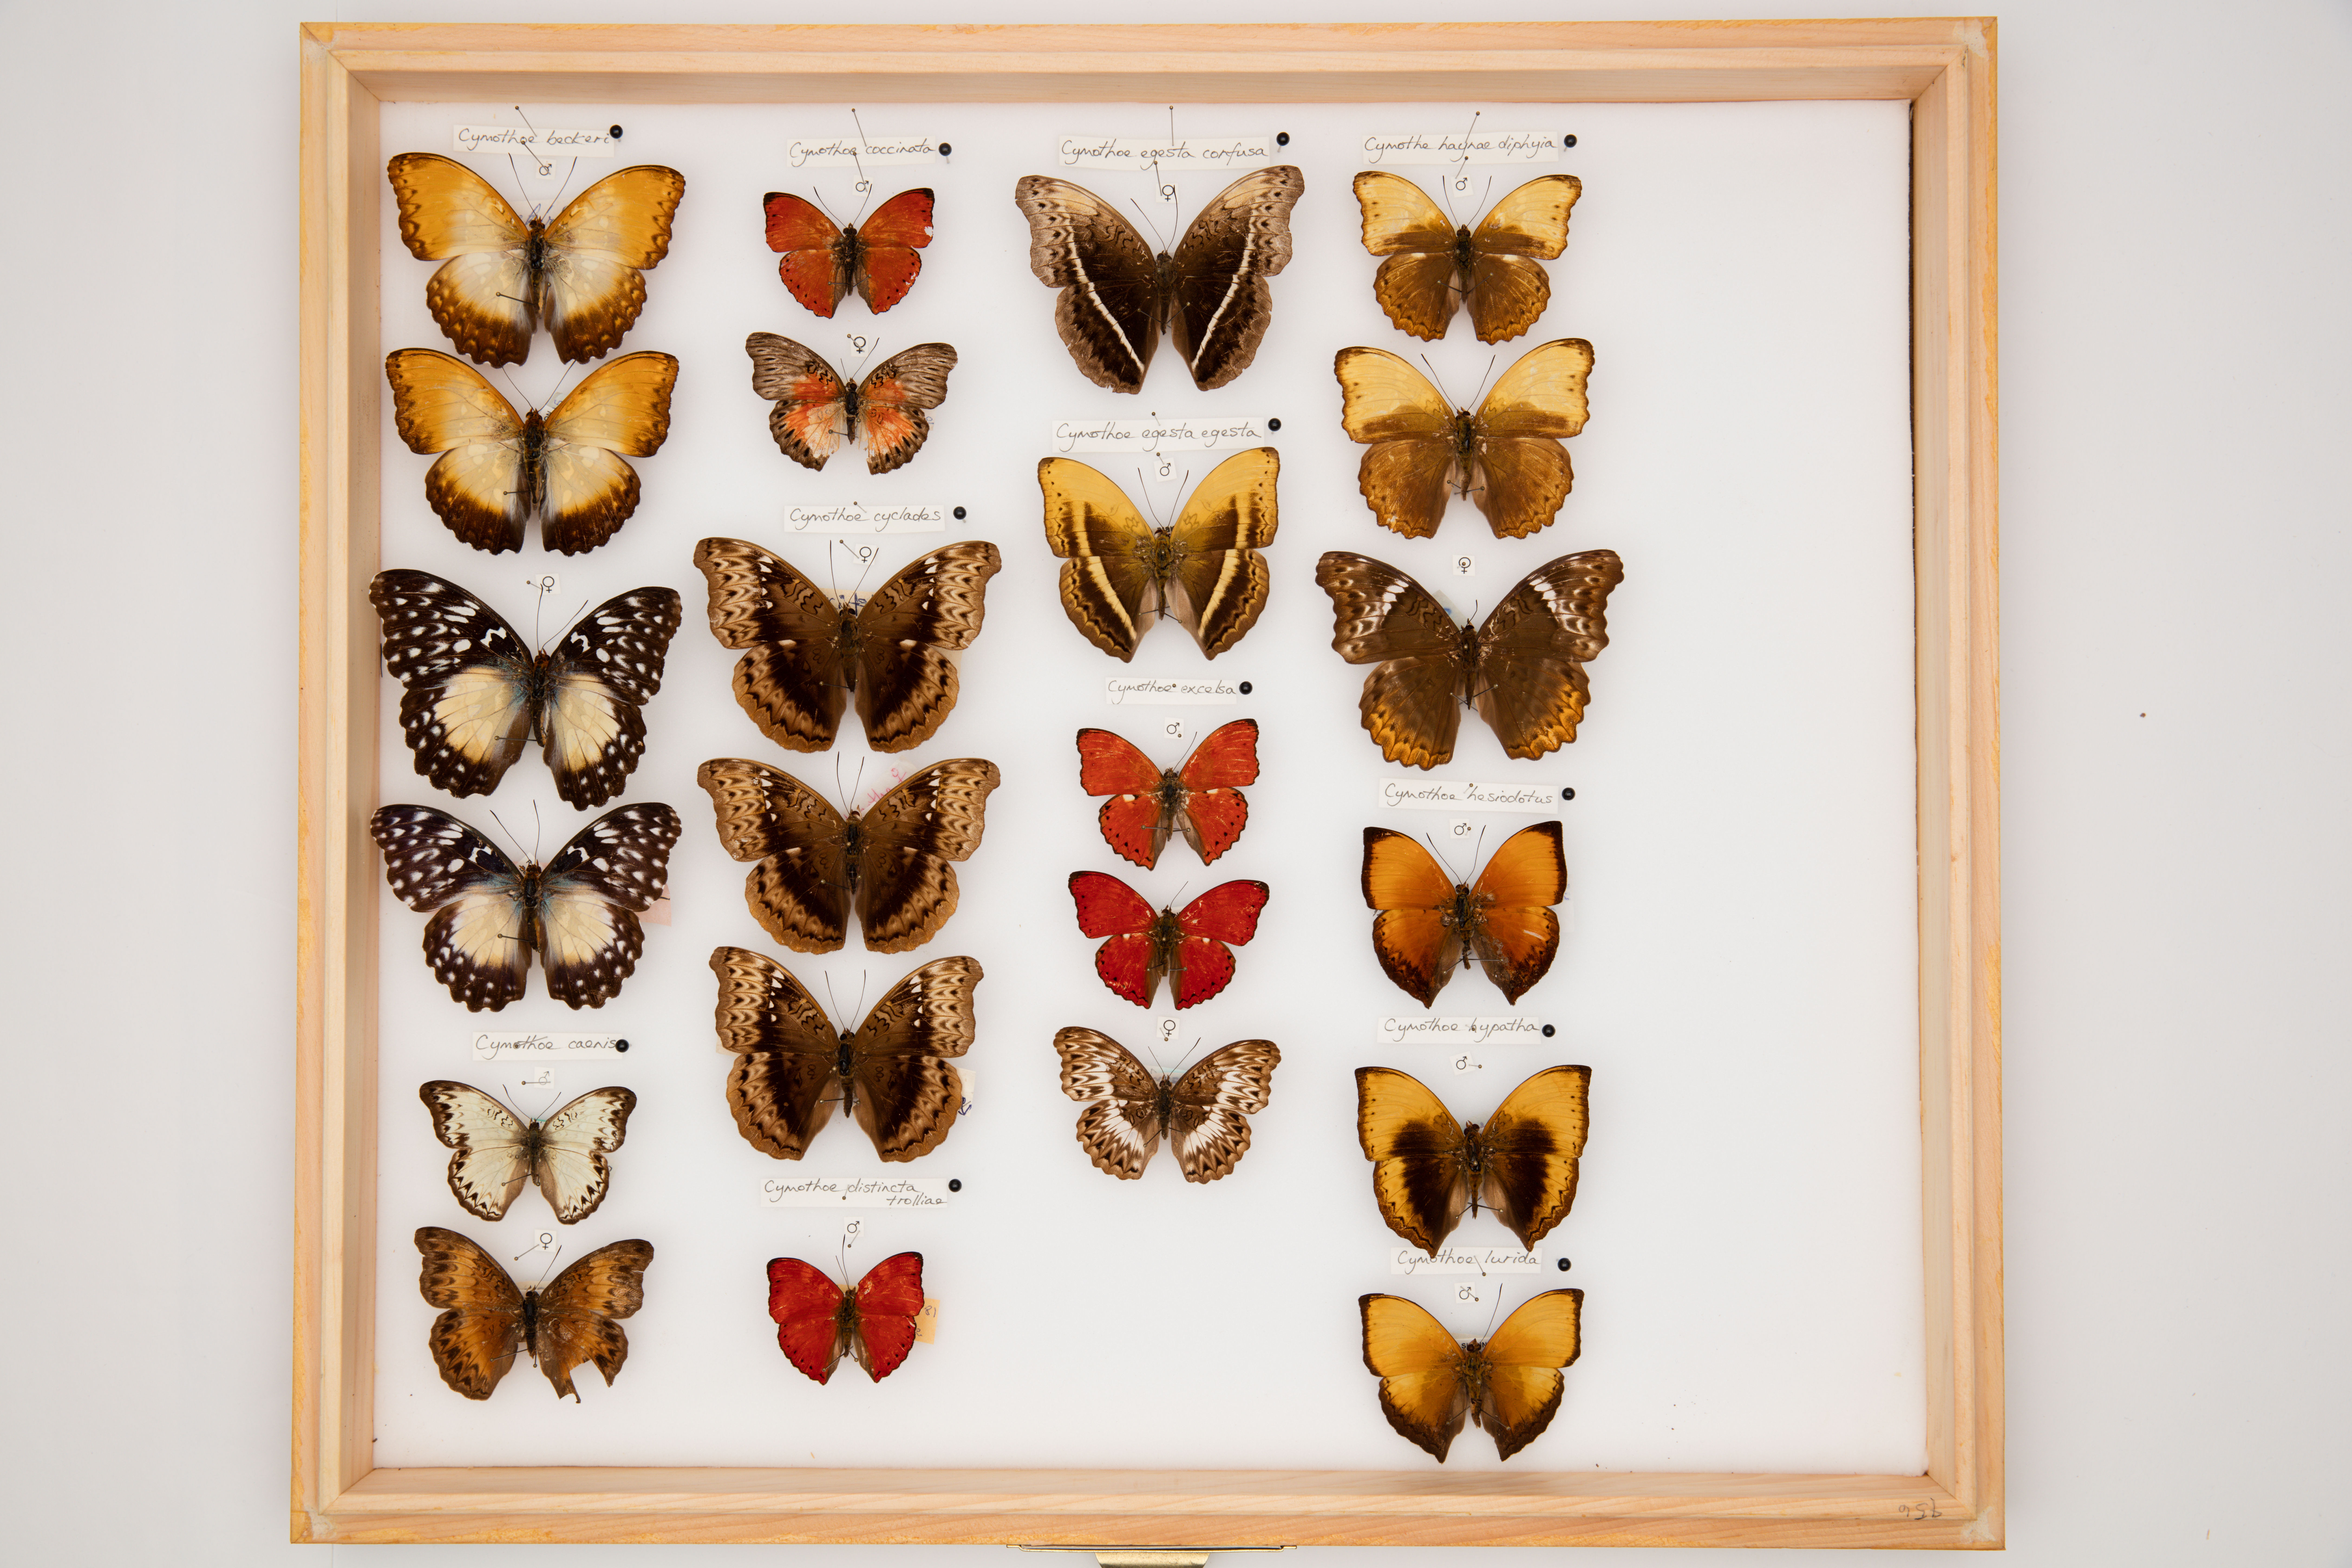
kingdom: Animalia
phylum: Arthropoda
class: Insecta
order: Lepidoptera
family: Nymphalidae
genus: Cymothoe
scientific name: Cymothoe haynae
